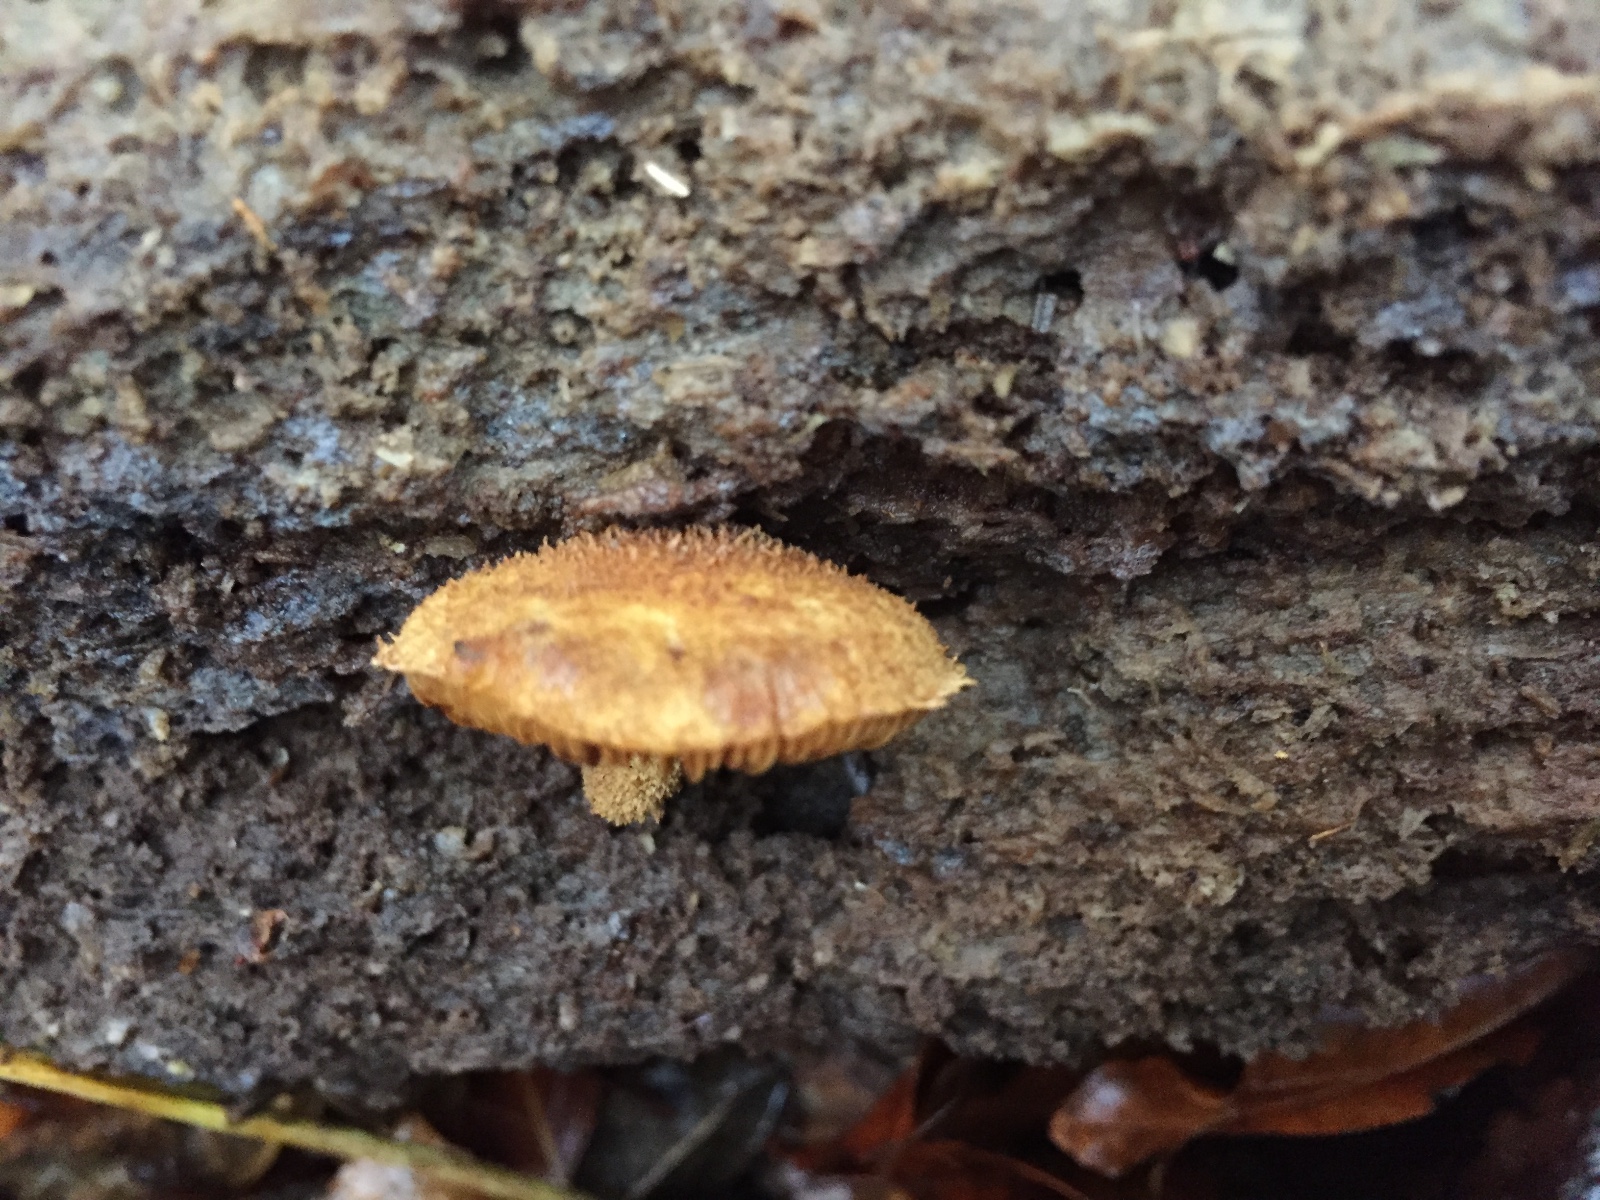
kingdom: Fungi
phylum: Basidiomycota
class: Agaricomycetes
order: Agaricales
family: Tubariaceae
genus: Flammulaster
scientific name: Flammulaster muricatus
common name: pigget grynskælhat
